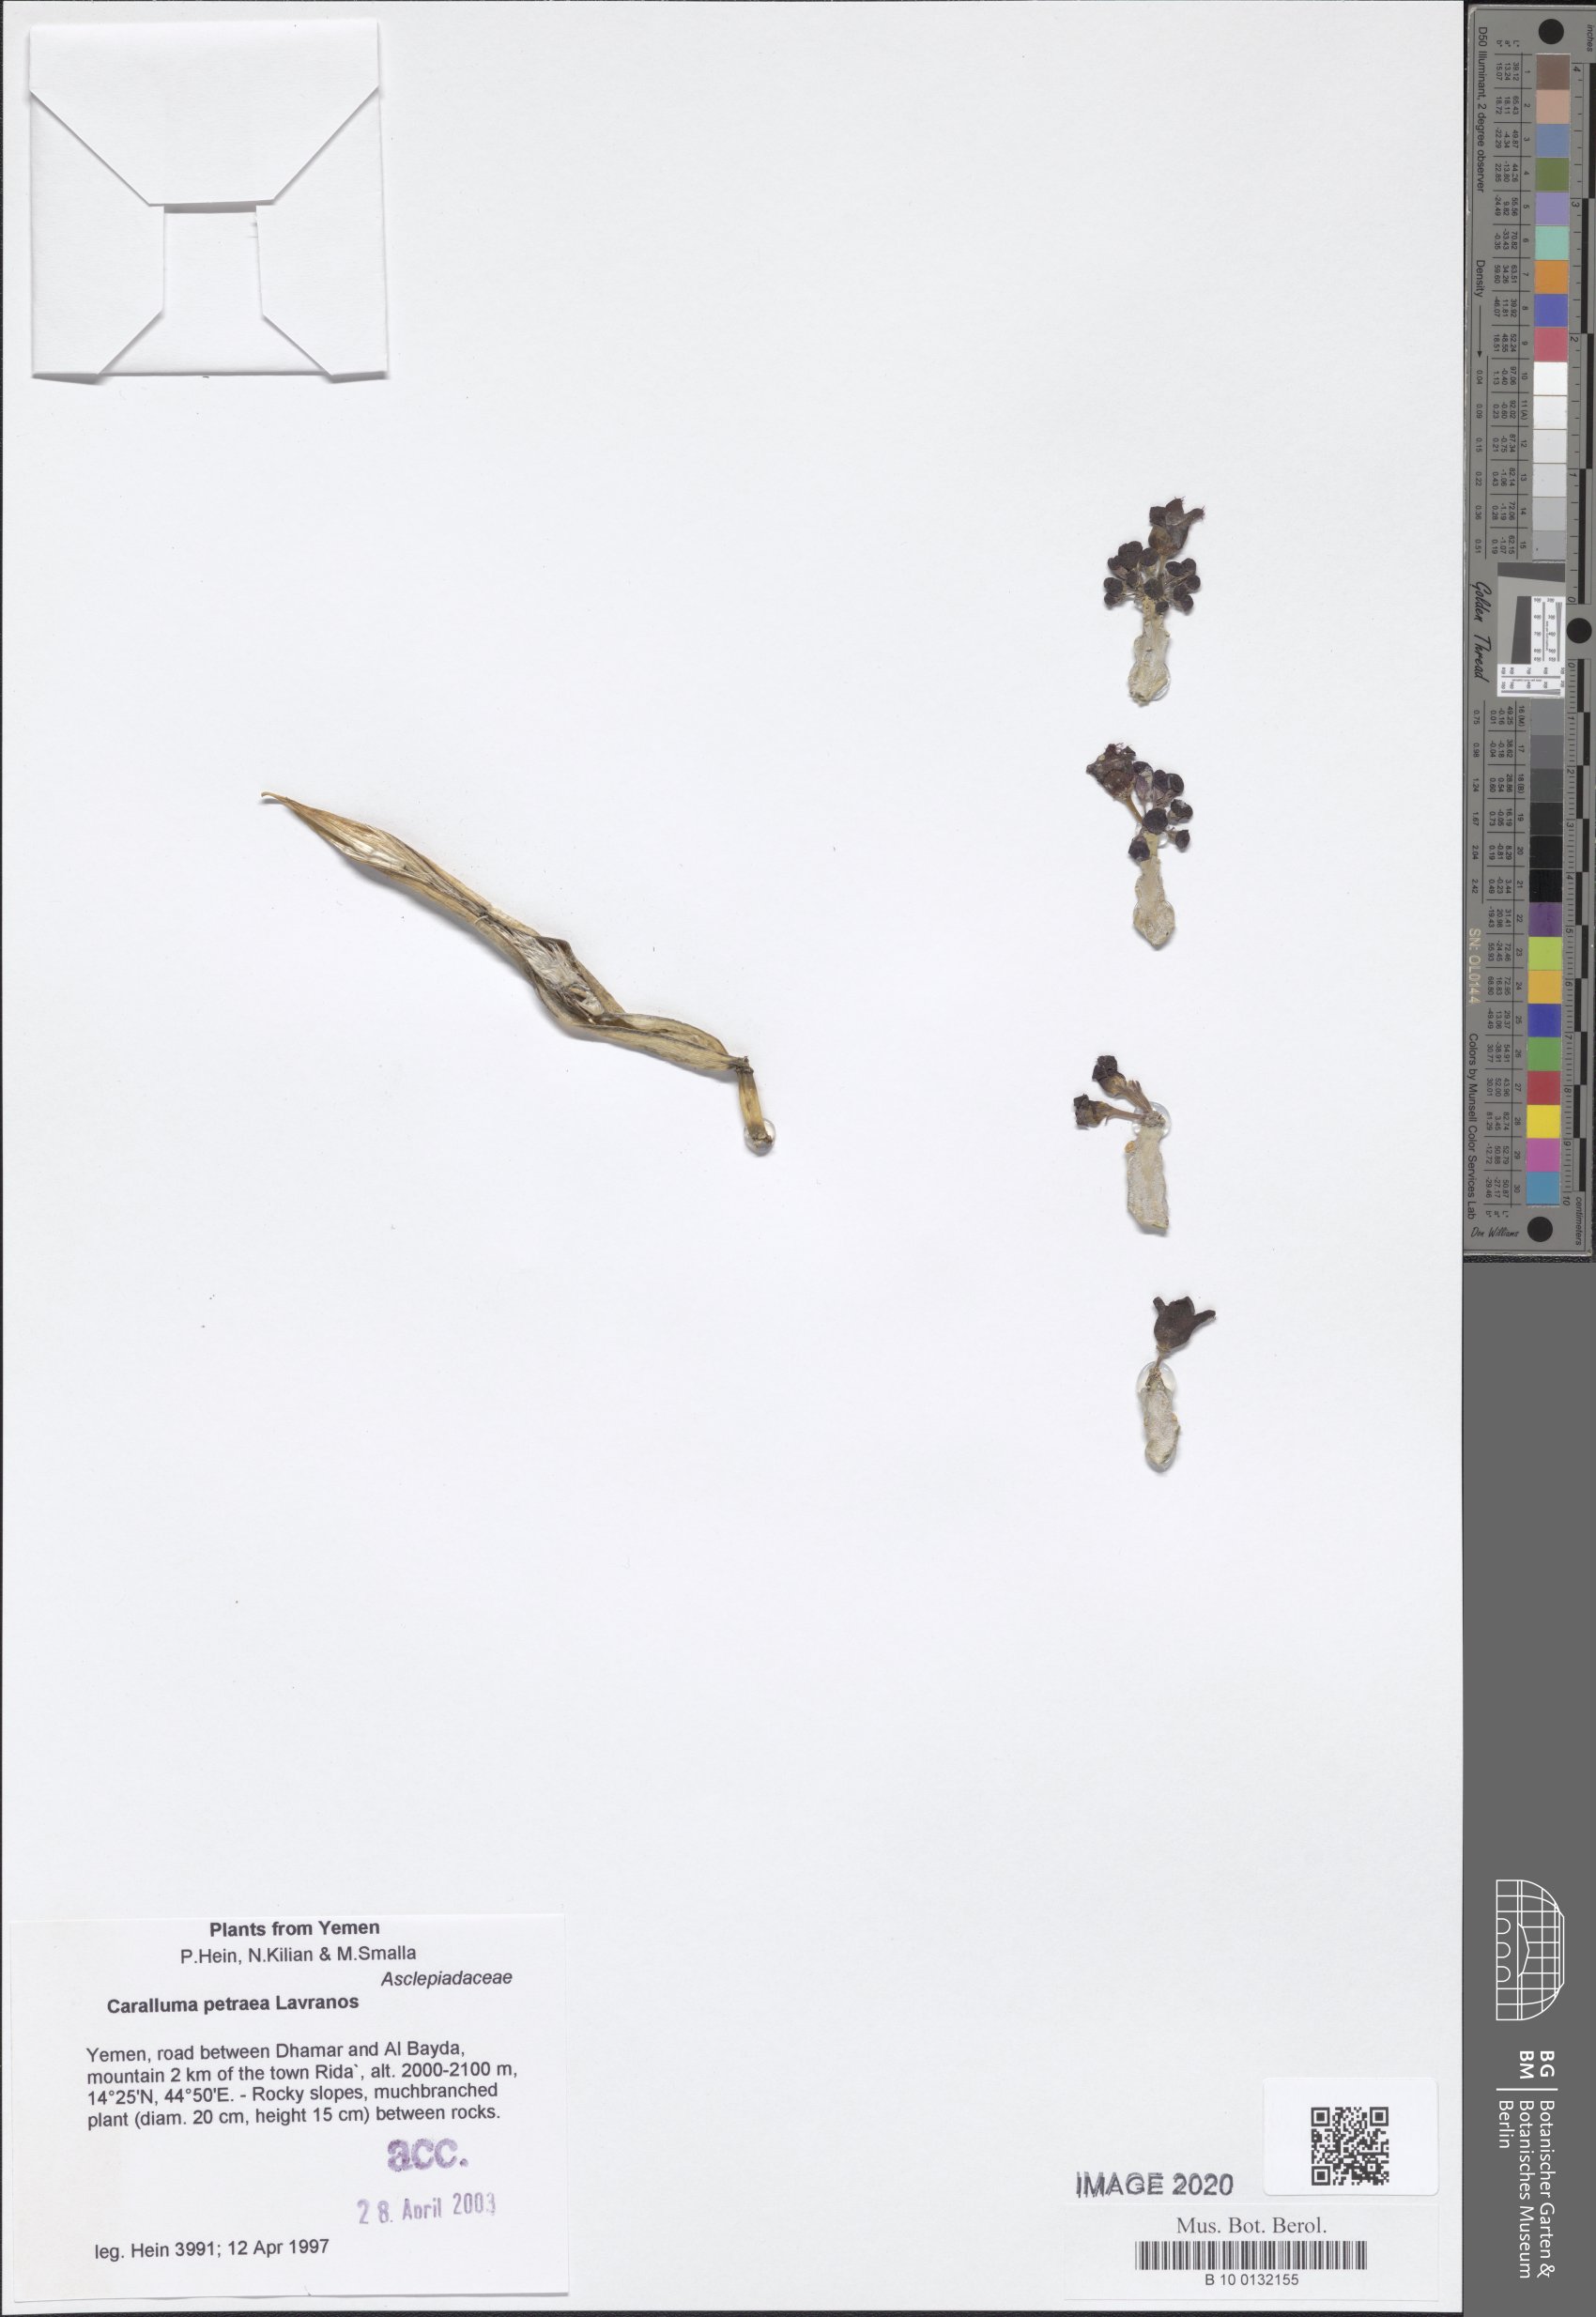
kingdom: Plantae
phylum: Tracheophyta
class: Magnoliopsida
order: Gentianales
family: Apocynaceae
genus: Ceropegia
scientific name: Ceropegia petraea
